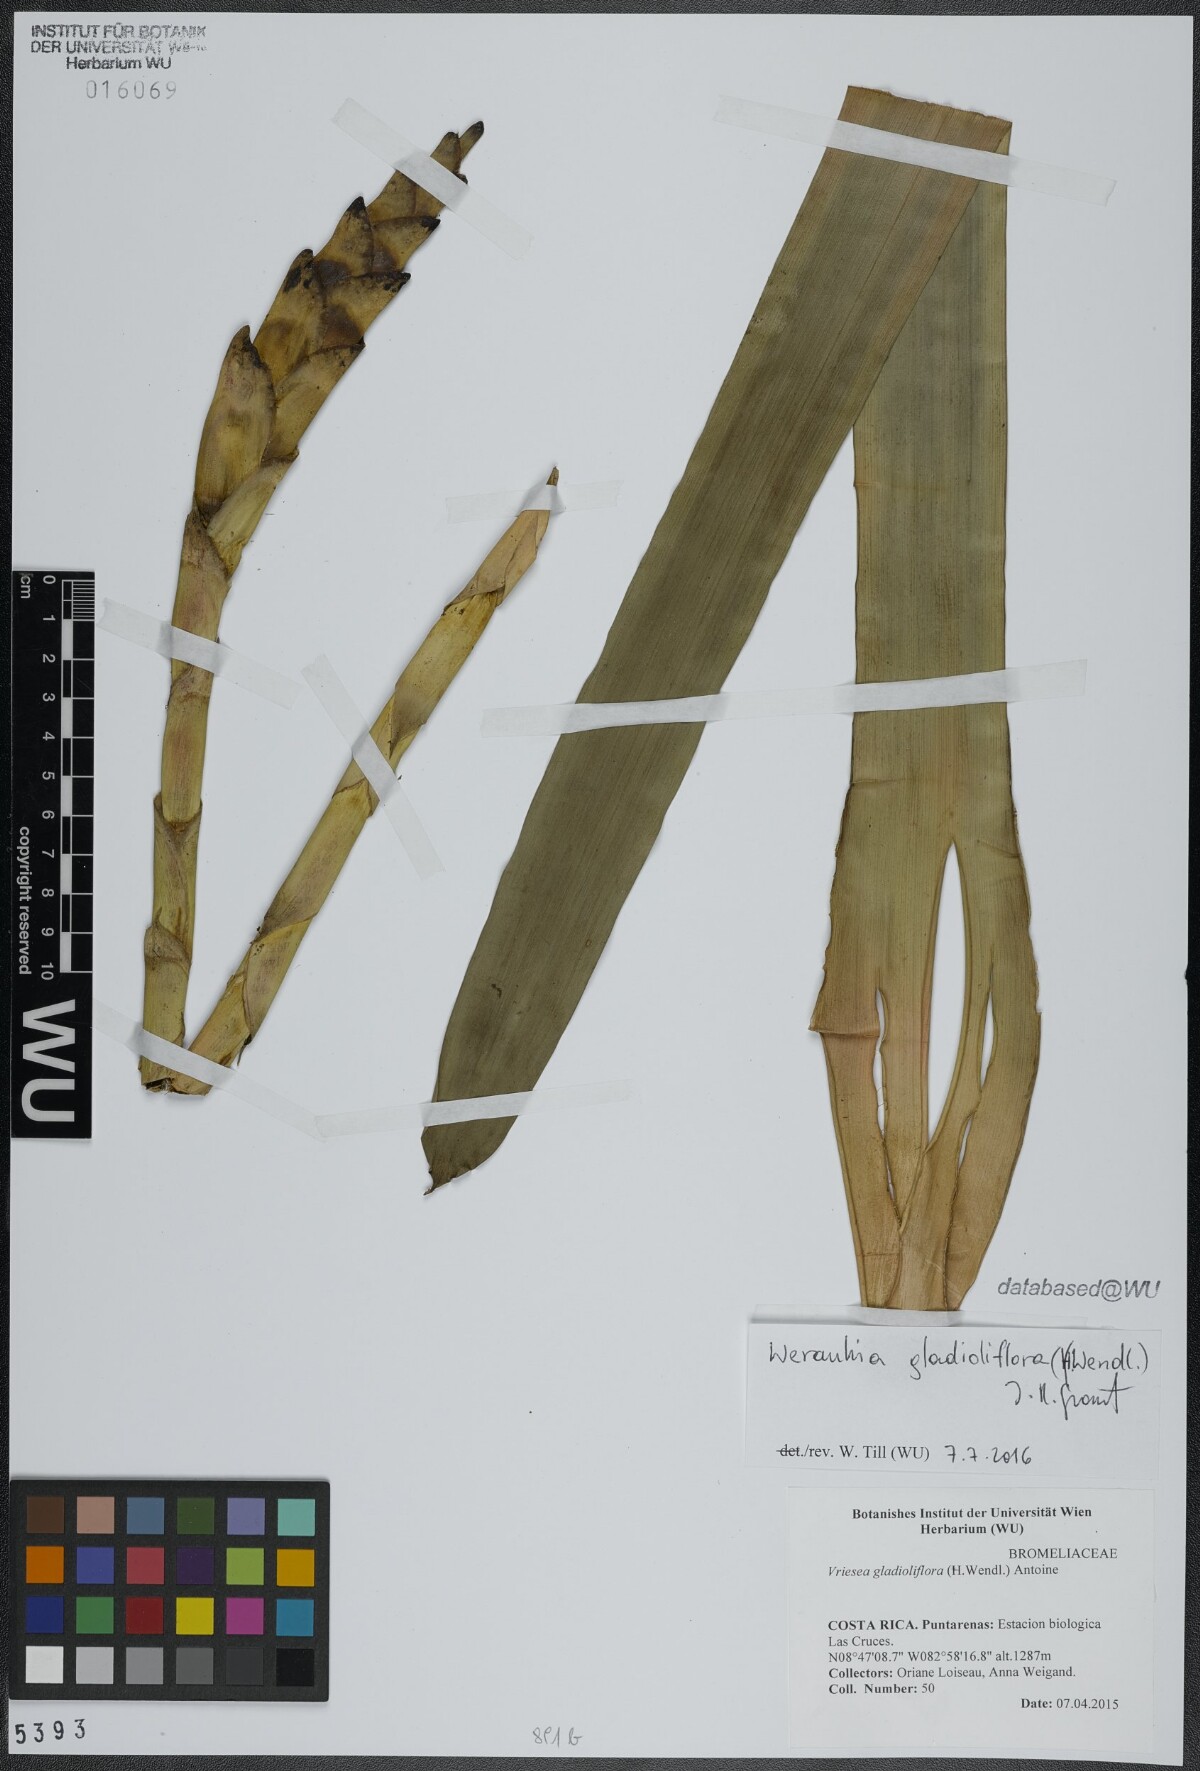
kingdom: Plantae
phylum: Tracheophyta
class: Liliopsida
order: Poales
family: Bromeliaceae
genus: Werauhia
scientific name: Werauhia gladioliflora
